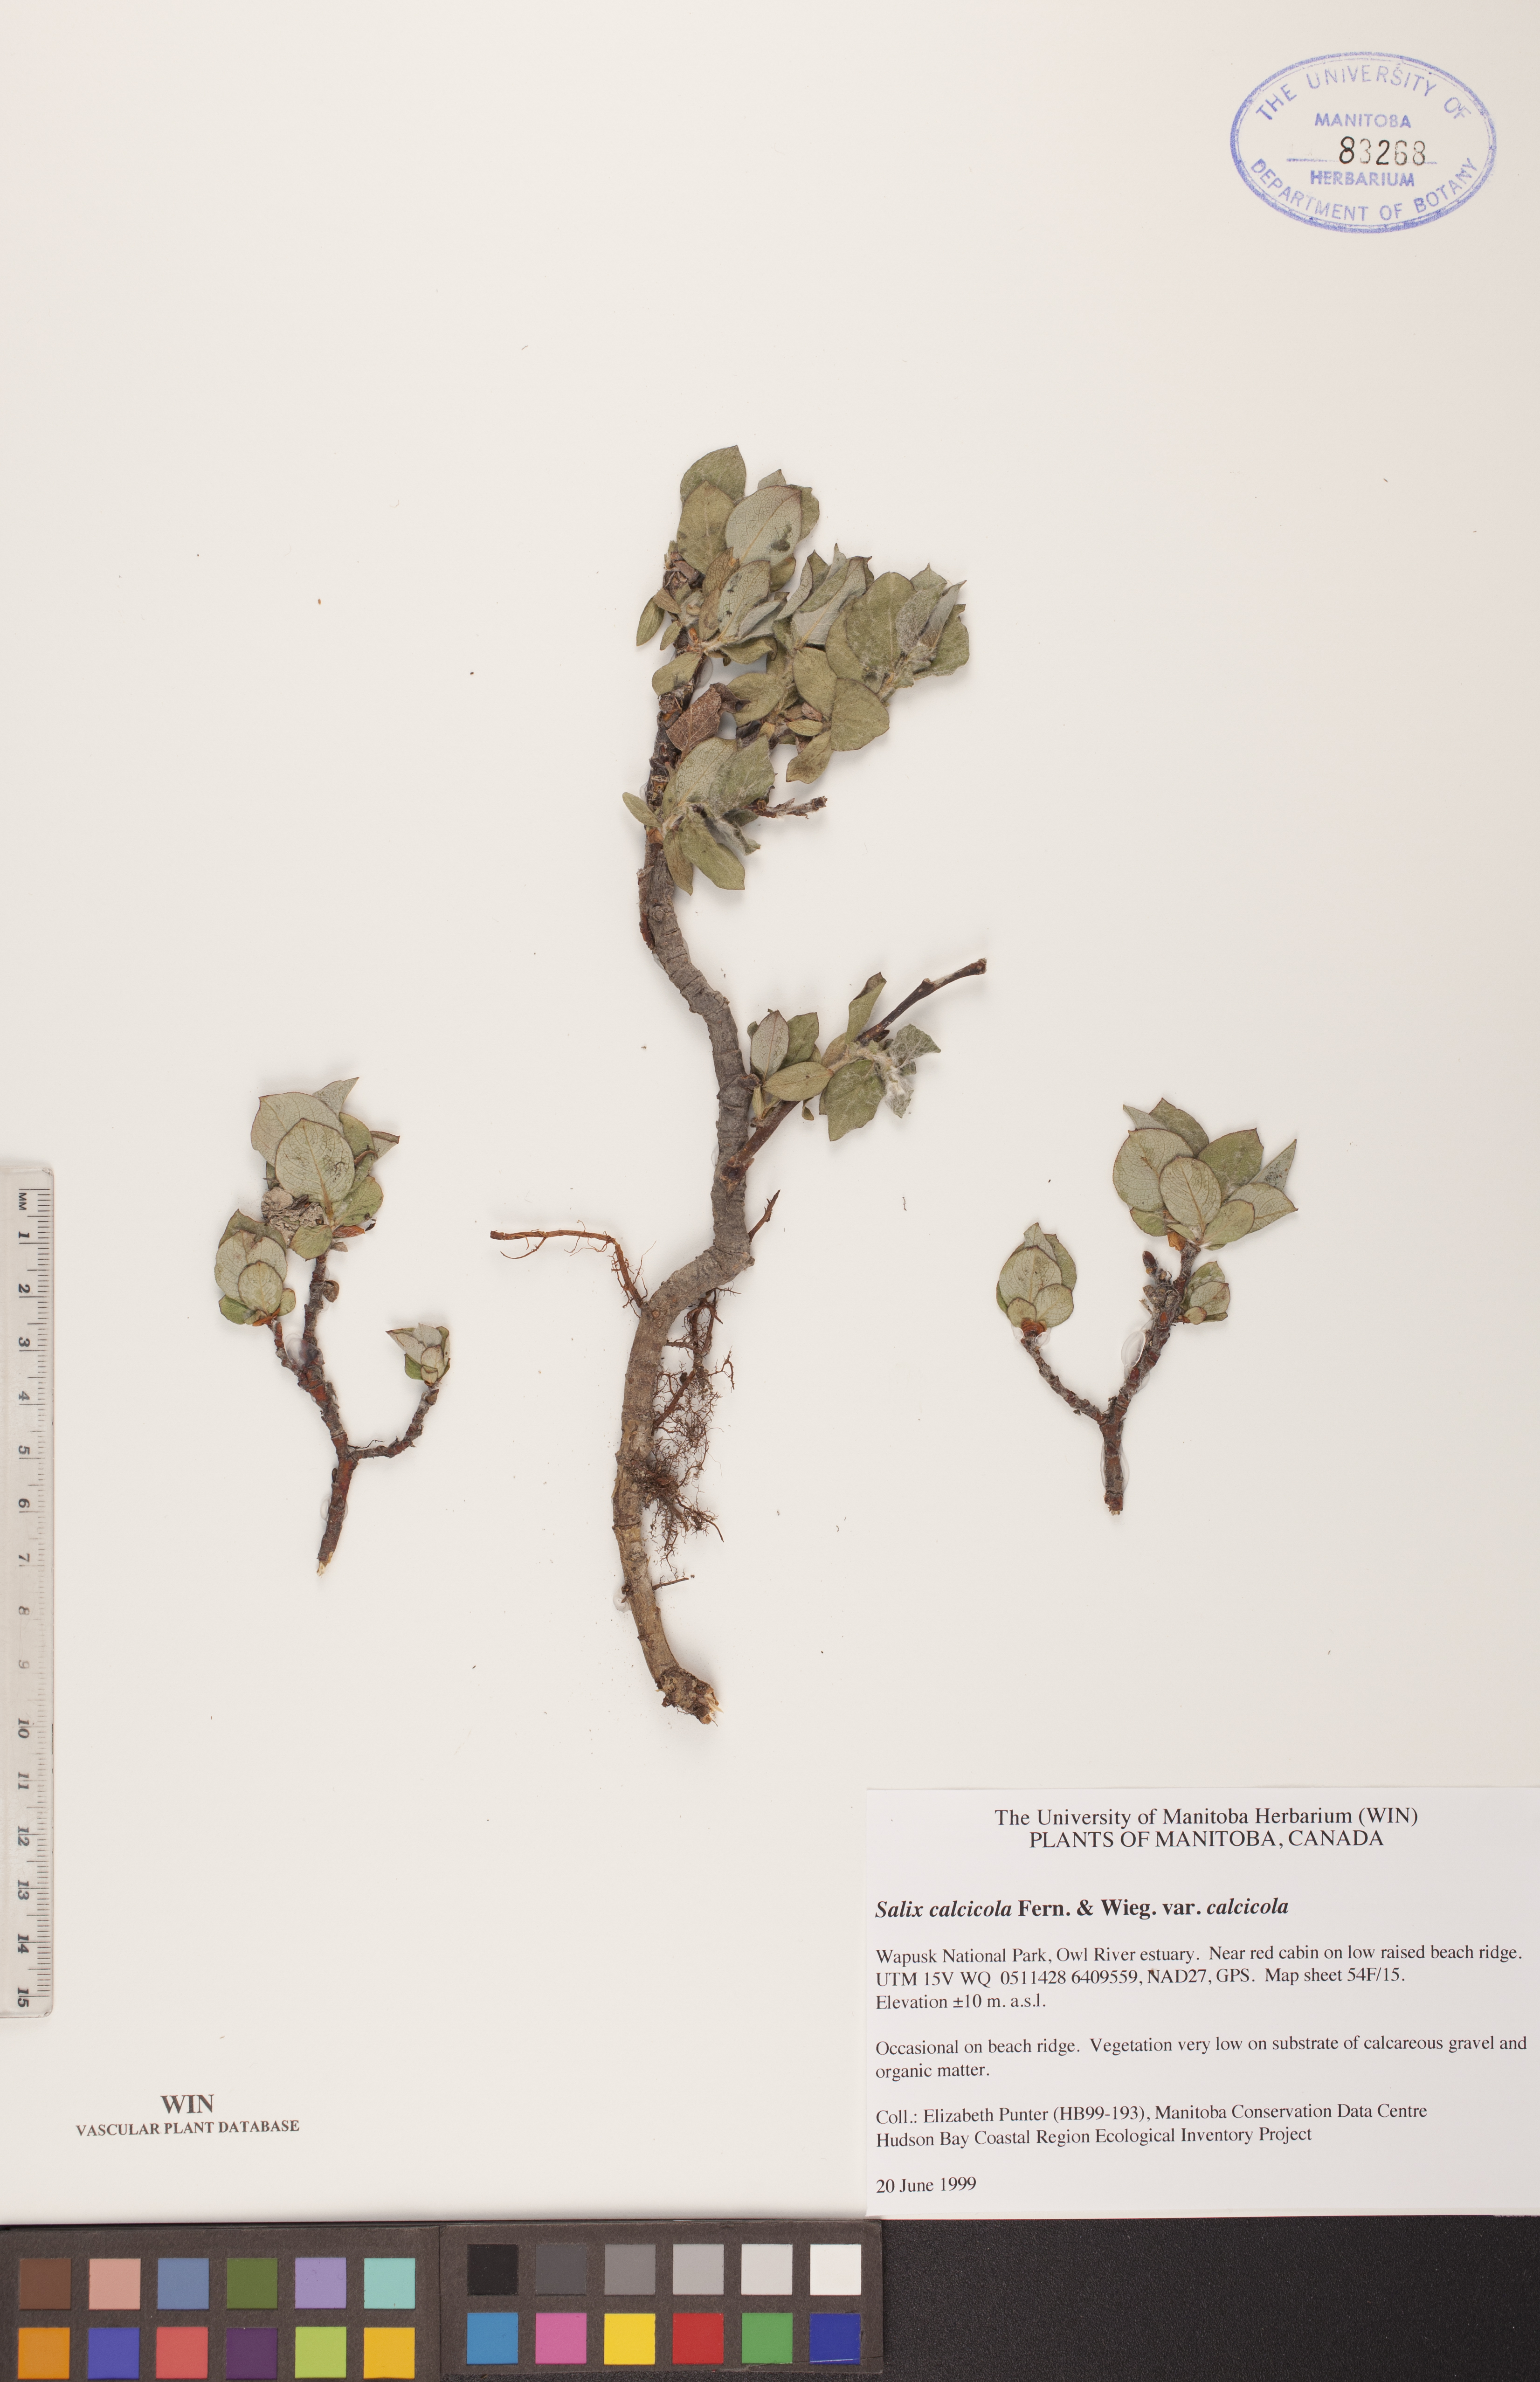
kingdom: Plantae
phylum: Tracheophyta
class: Magnoliopsida
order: Malpighiales
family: Salicaceae
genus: Salix
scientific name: Salix calcicola
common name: Calcareous willow
